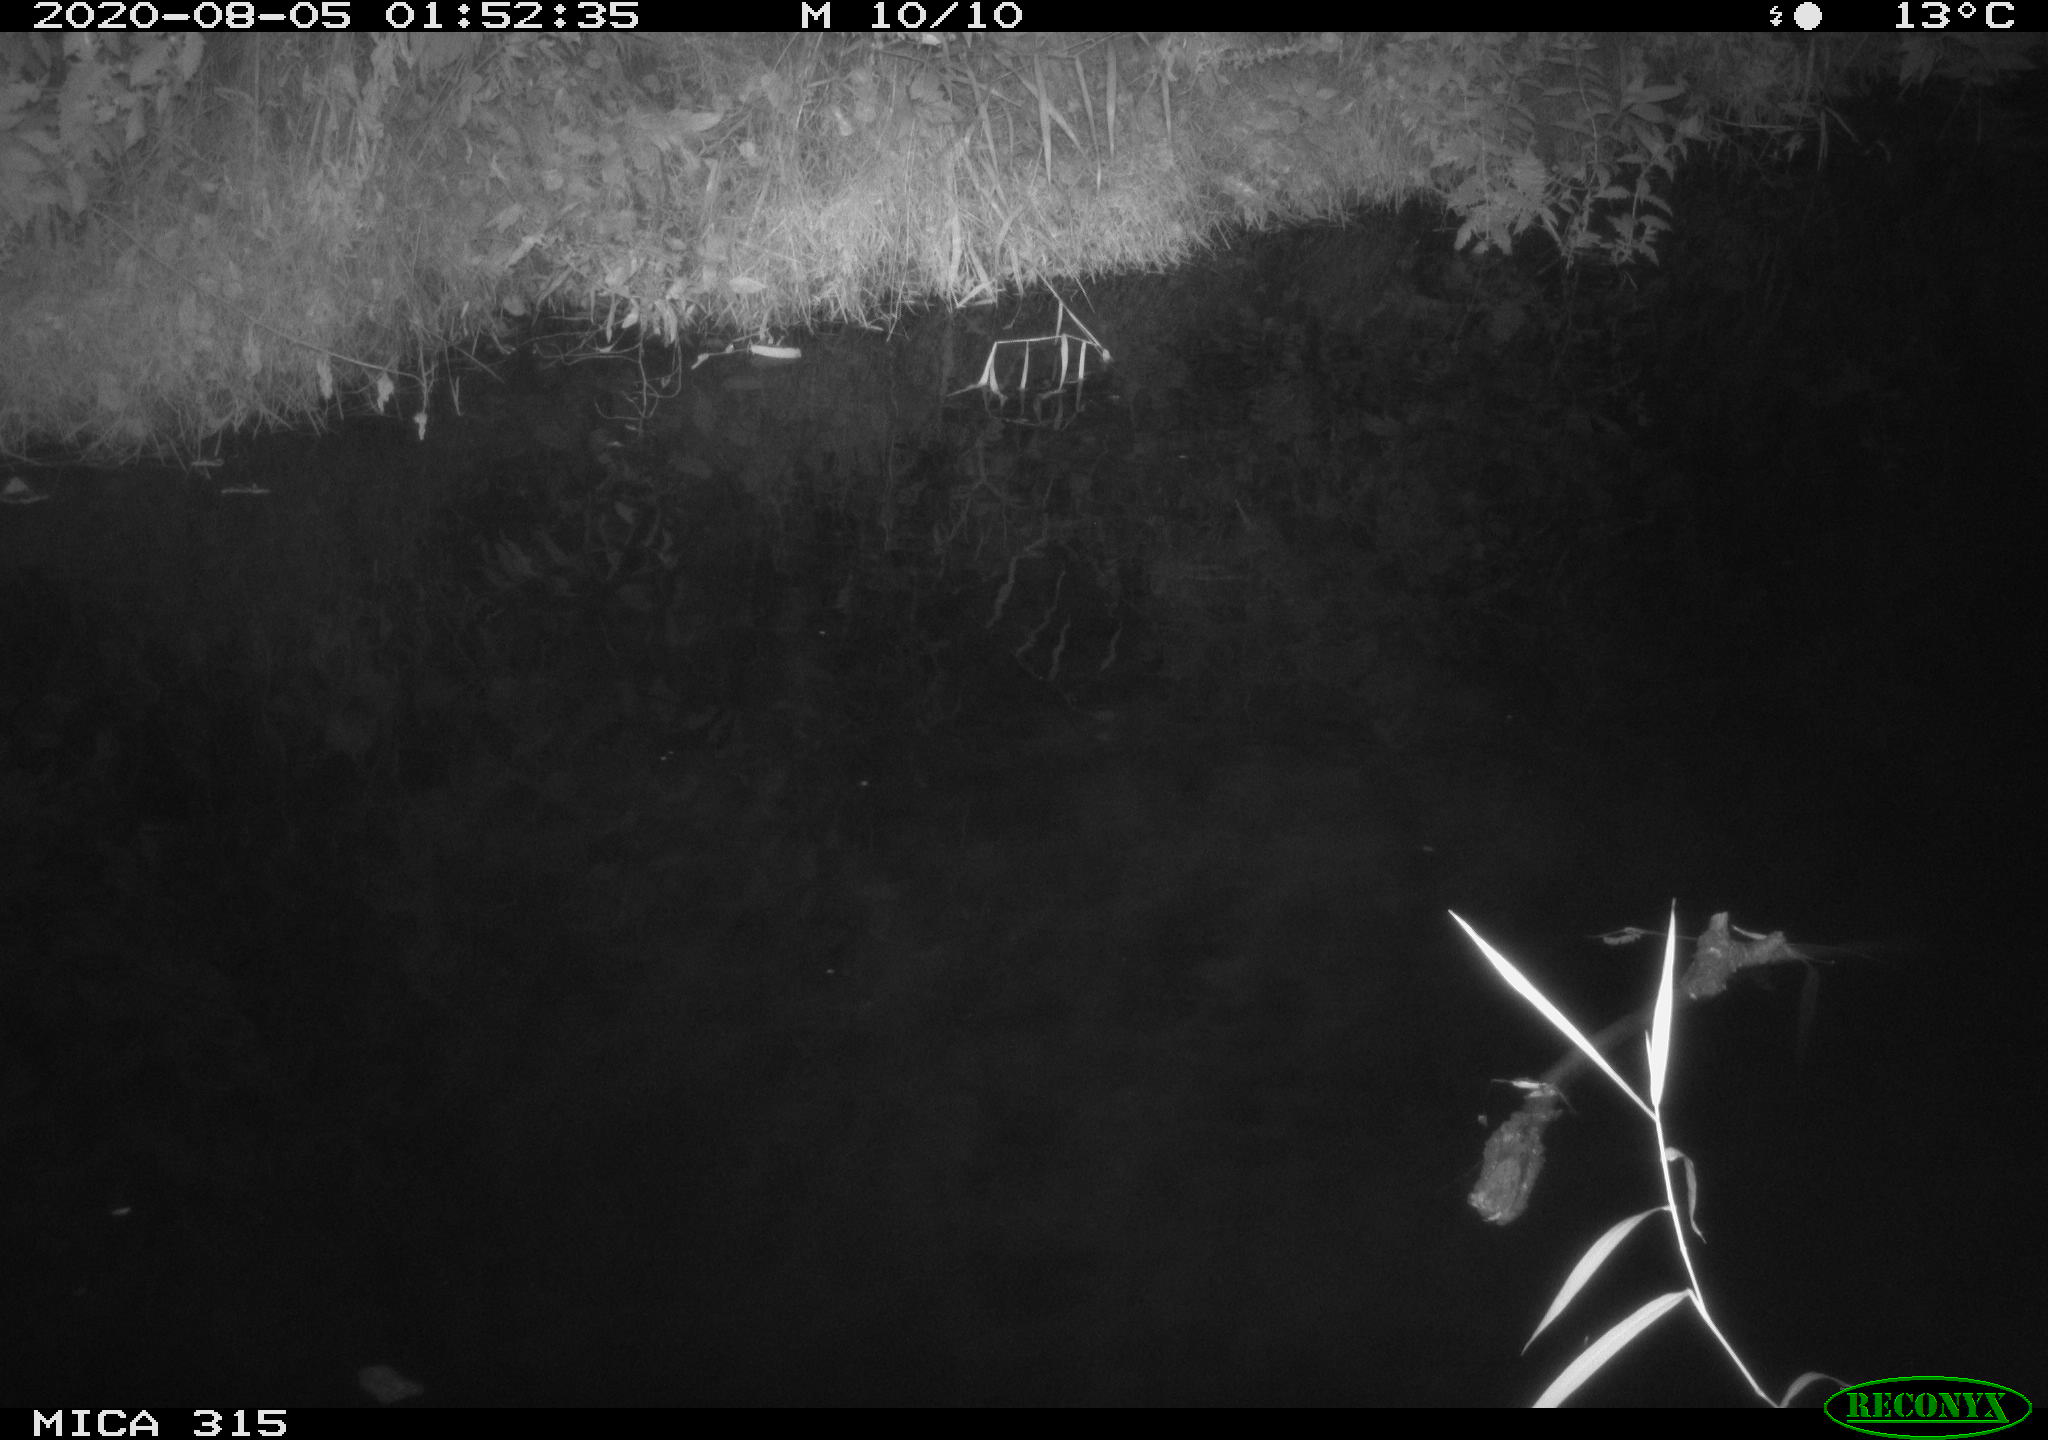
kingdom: Animalia
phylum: Chordata
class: Aves
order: Anseriformes
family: Anatidae
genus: Anas
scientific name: Anas platyrhynchos
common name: Mallard
